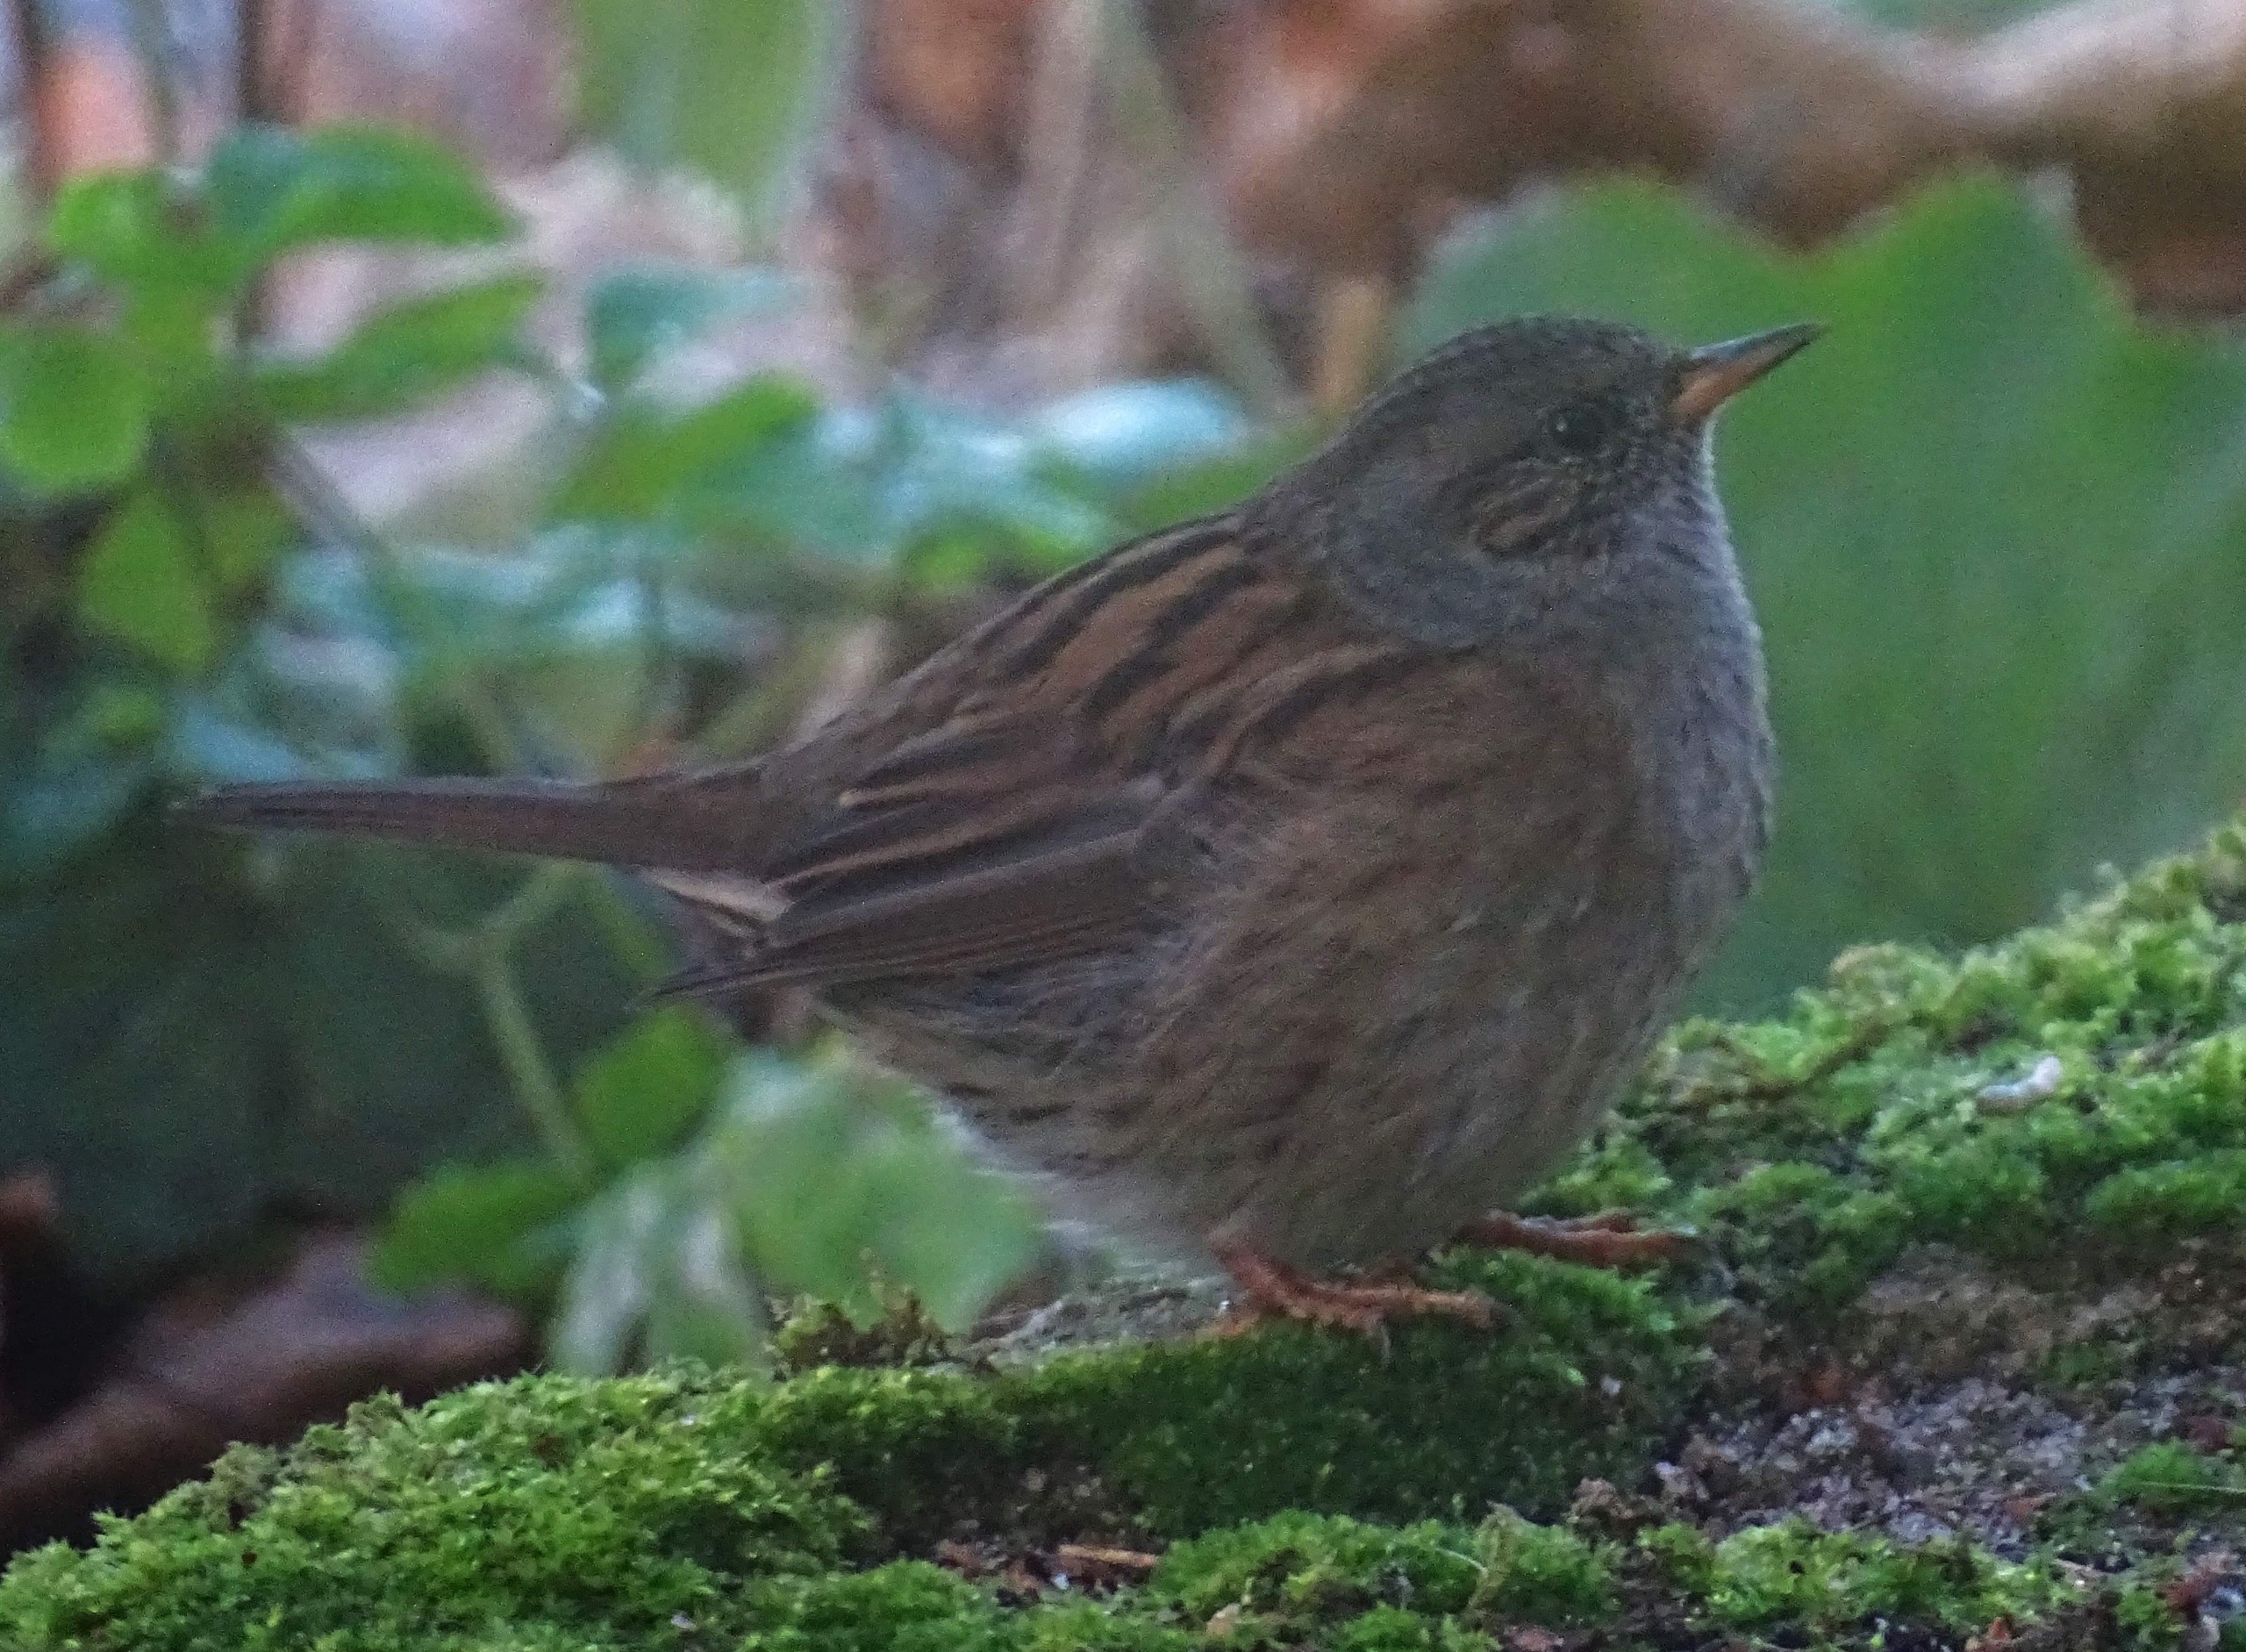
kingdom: Animalia
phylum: Chordata
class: Aves
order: Passeriformes
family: Prunellidae
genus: Prunella
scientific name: Prunella modularis
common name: Jernspurv
